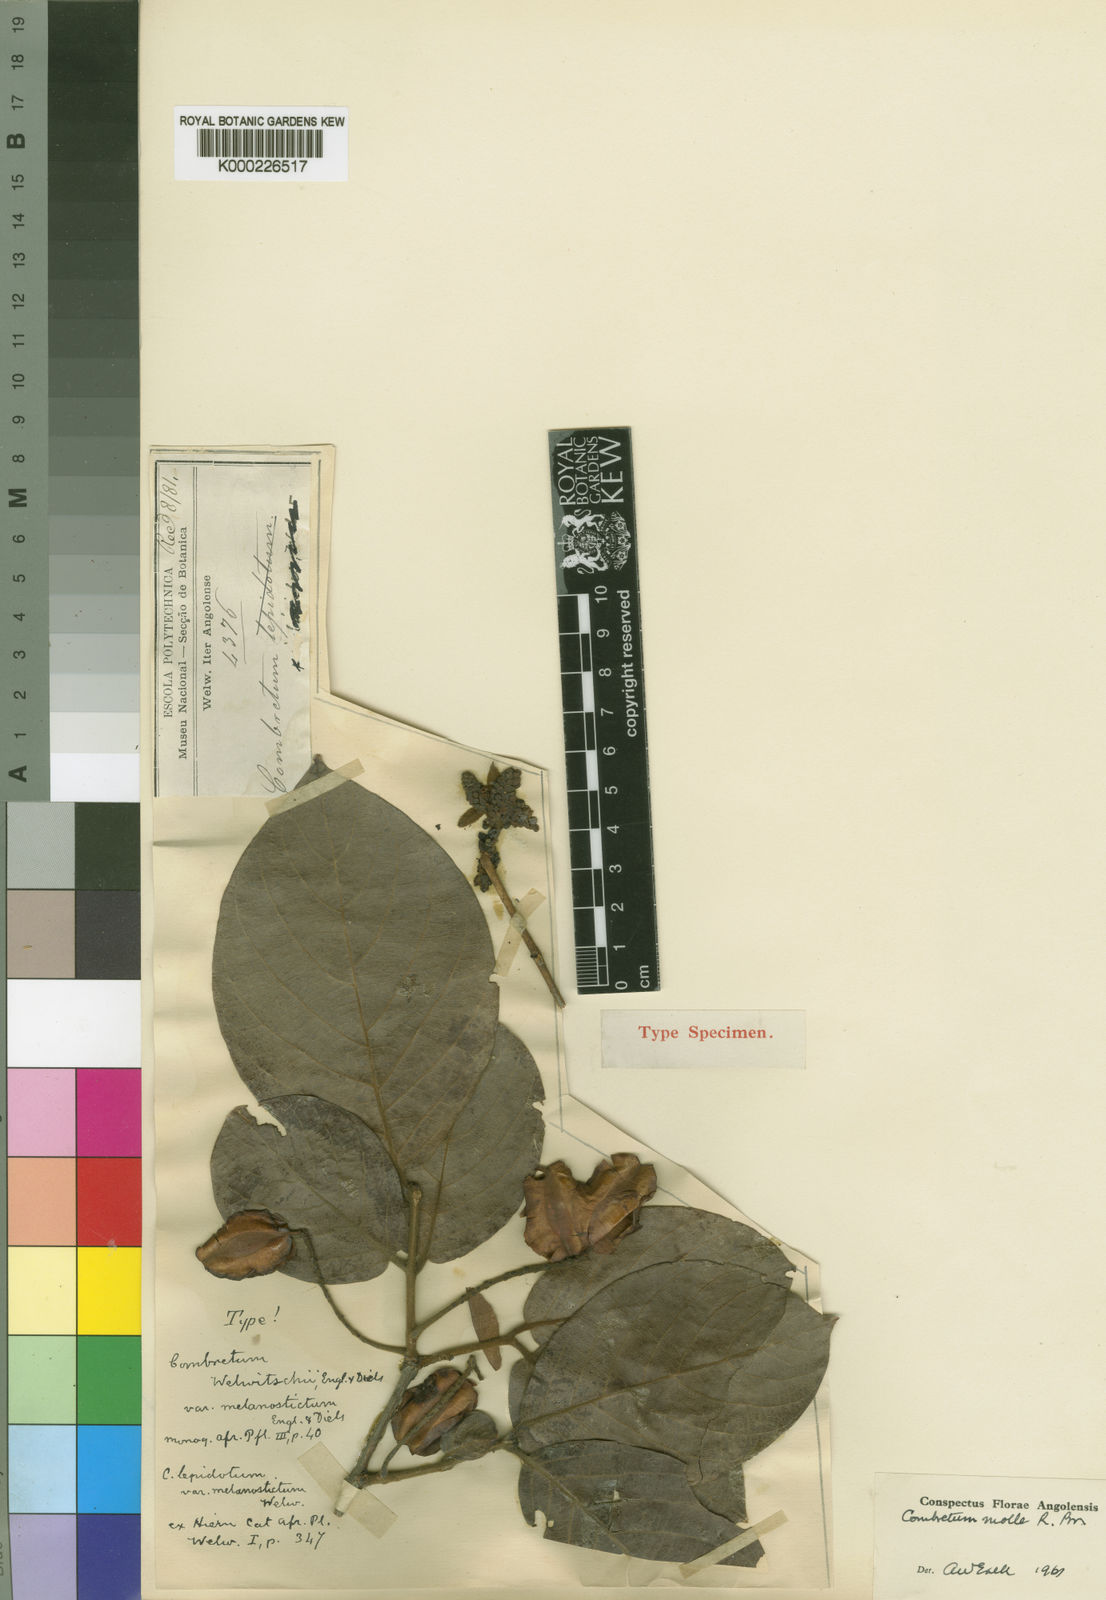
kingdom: Plantae
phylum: Tracheophyta
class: Magnoliopsida
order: Myrtales
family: Combretaceae
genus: Combretum
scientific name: Combretum molle
